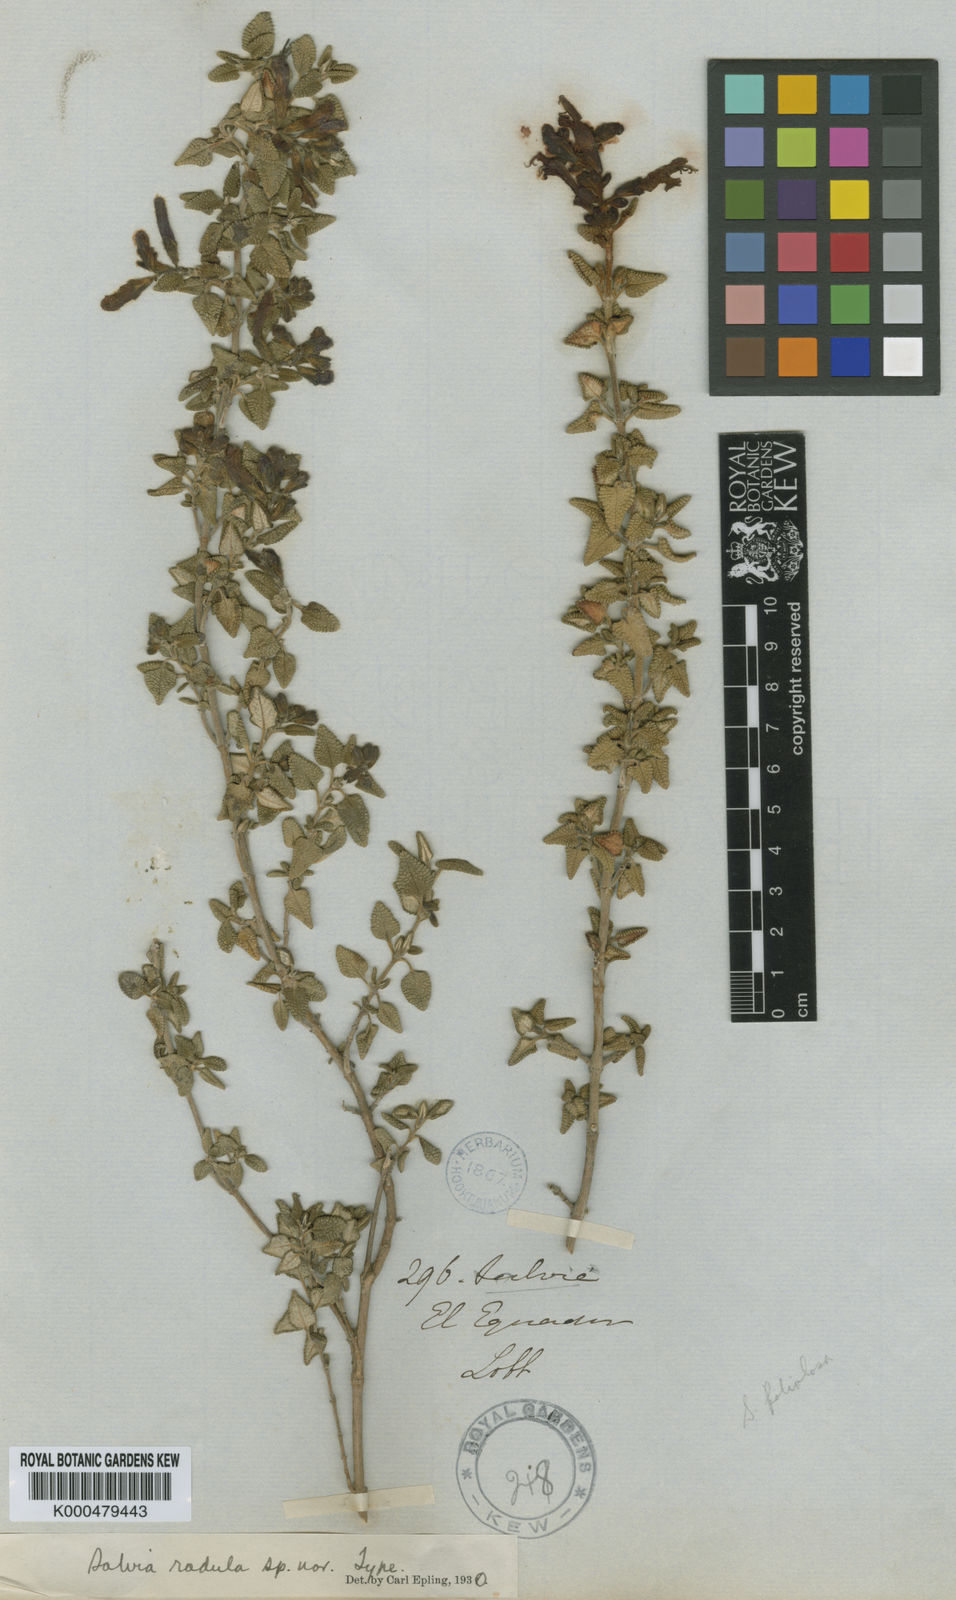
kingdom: Plantae
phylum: Tracheophyta
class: Magnoliopsida
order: Lamiales
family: Lamiaceae
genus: Salvia
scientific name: Salvia
